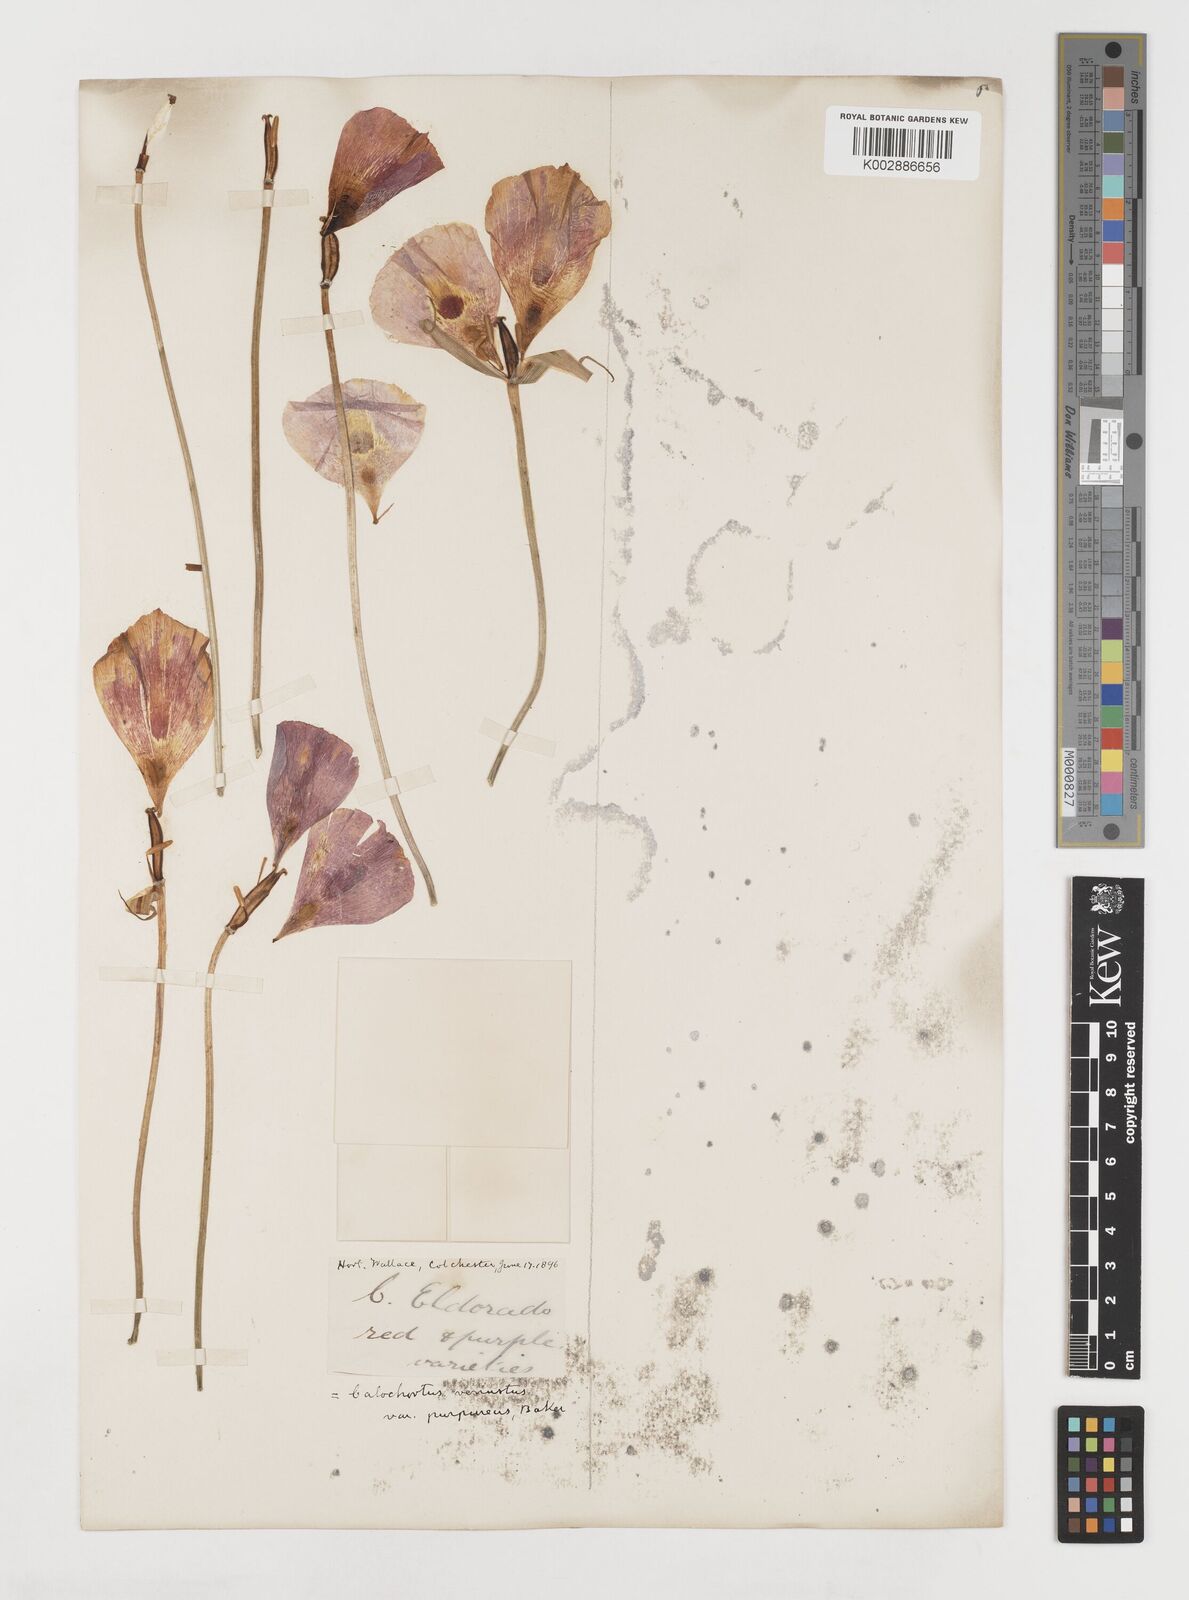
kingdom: Plantae
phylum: Tracheophyta
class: Liliopsida
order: Liliales
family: Liliaceae
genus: Calochortus
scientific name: Calochortus venustus
